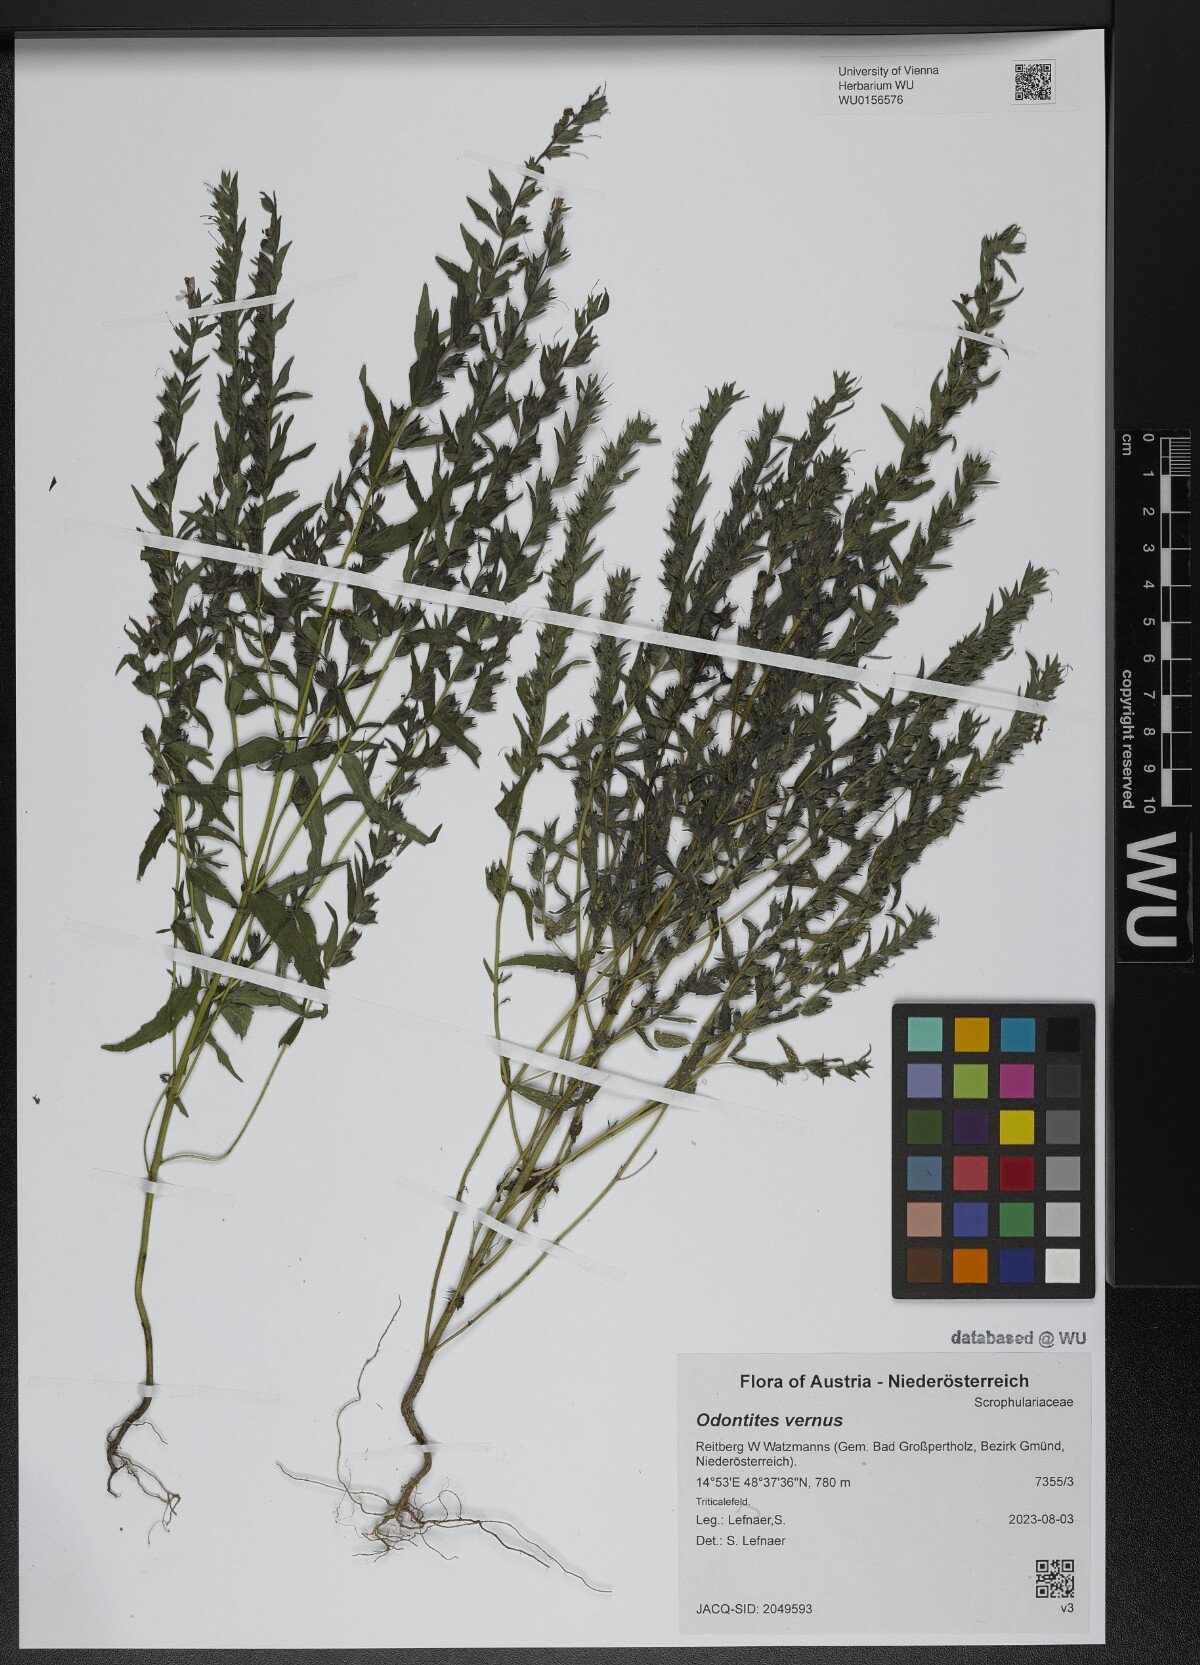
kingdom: Plantae
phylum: Tracheophyta
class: Magnoliopsida
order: Lamiales
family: Orobanchaceae
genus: Odontites
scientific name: Odontites vernus
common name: Red bartsia
